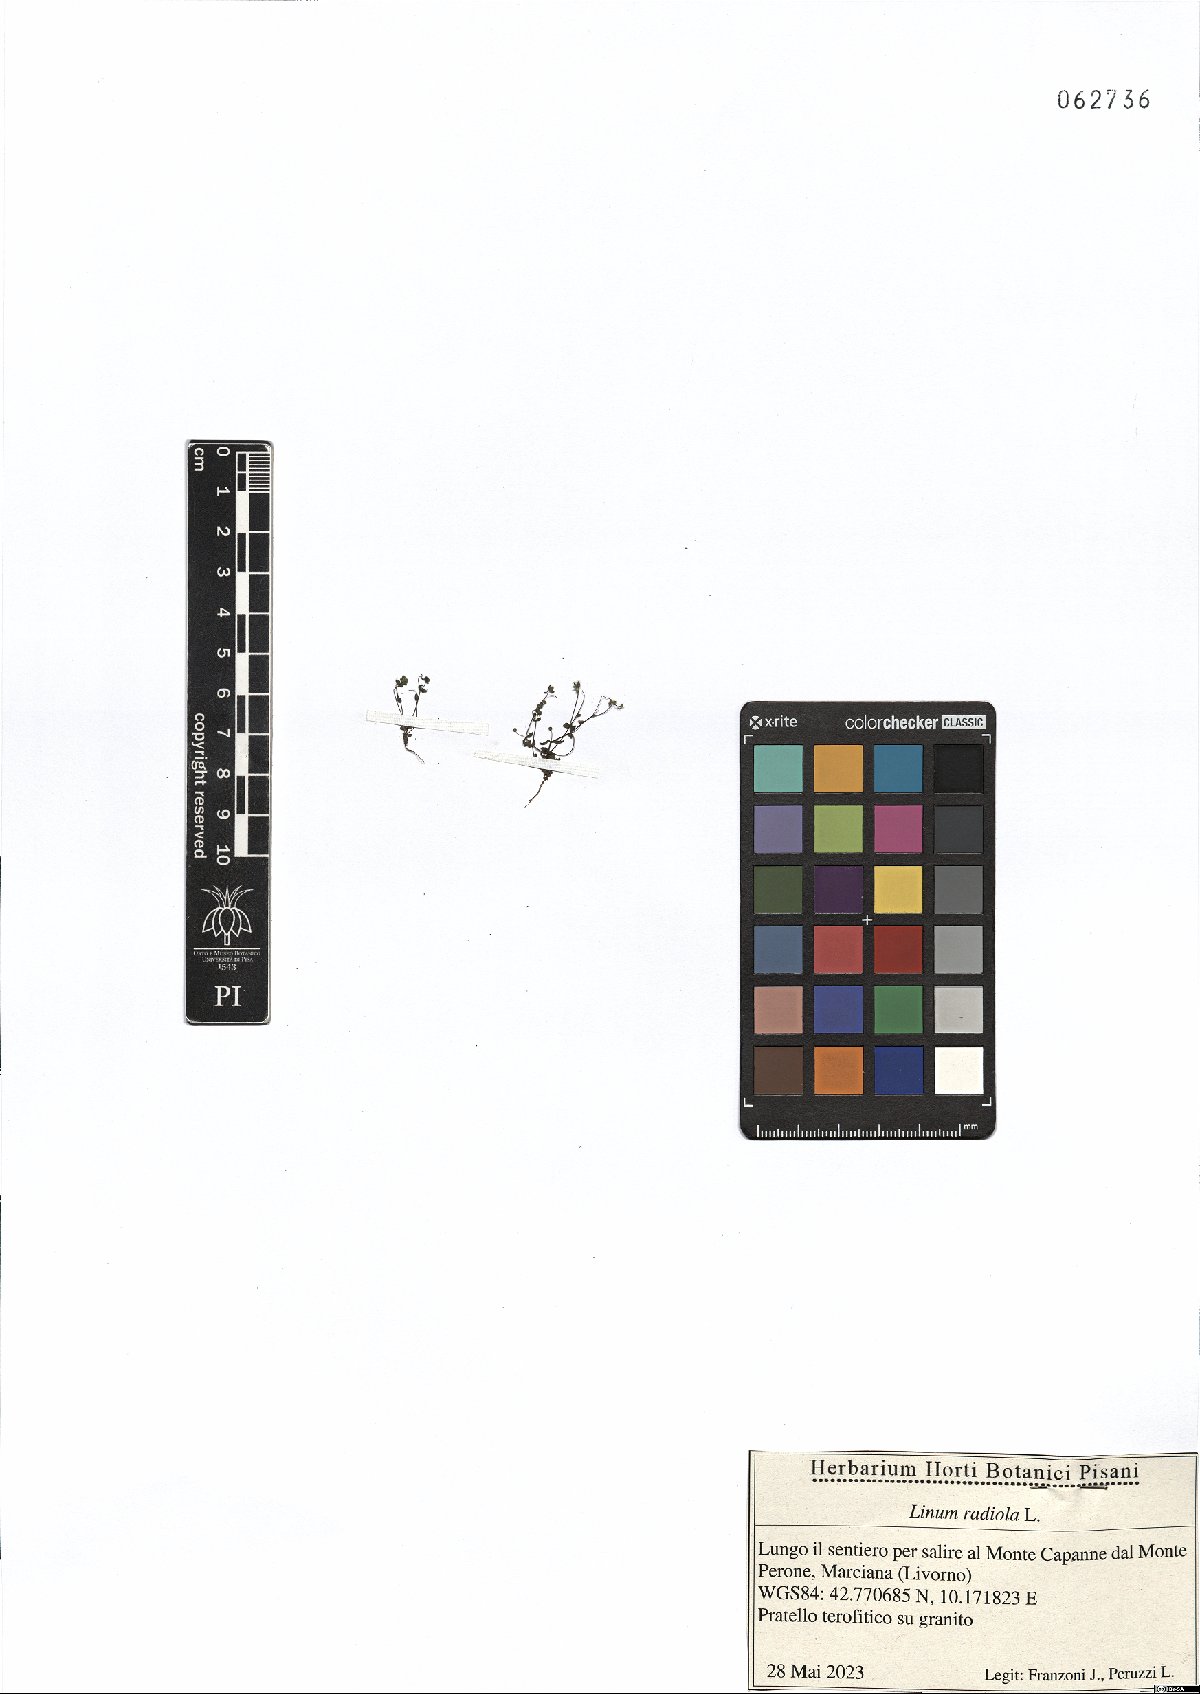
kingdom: Plantae
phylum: Tracheophyta
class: Magnoliopsida
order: Malpighiales
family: Linaceae
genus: Radiola
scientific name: Radiola linoides
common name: Allseed
